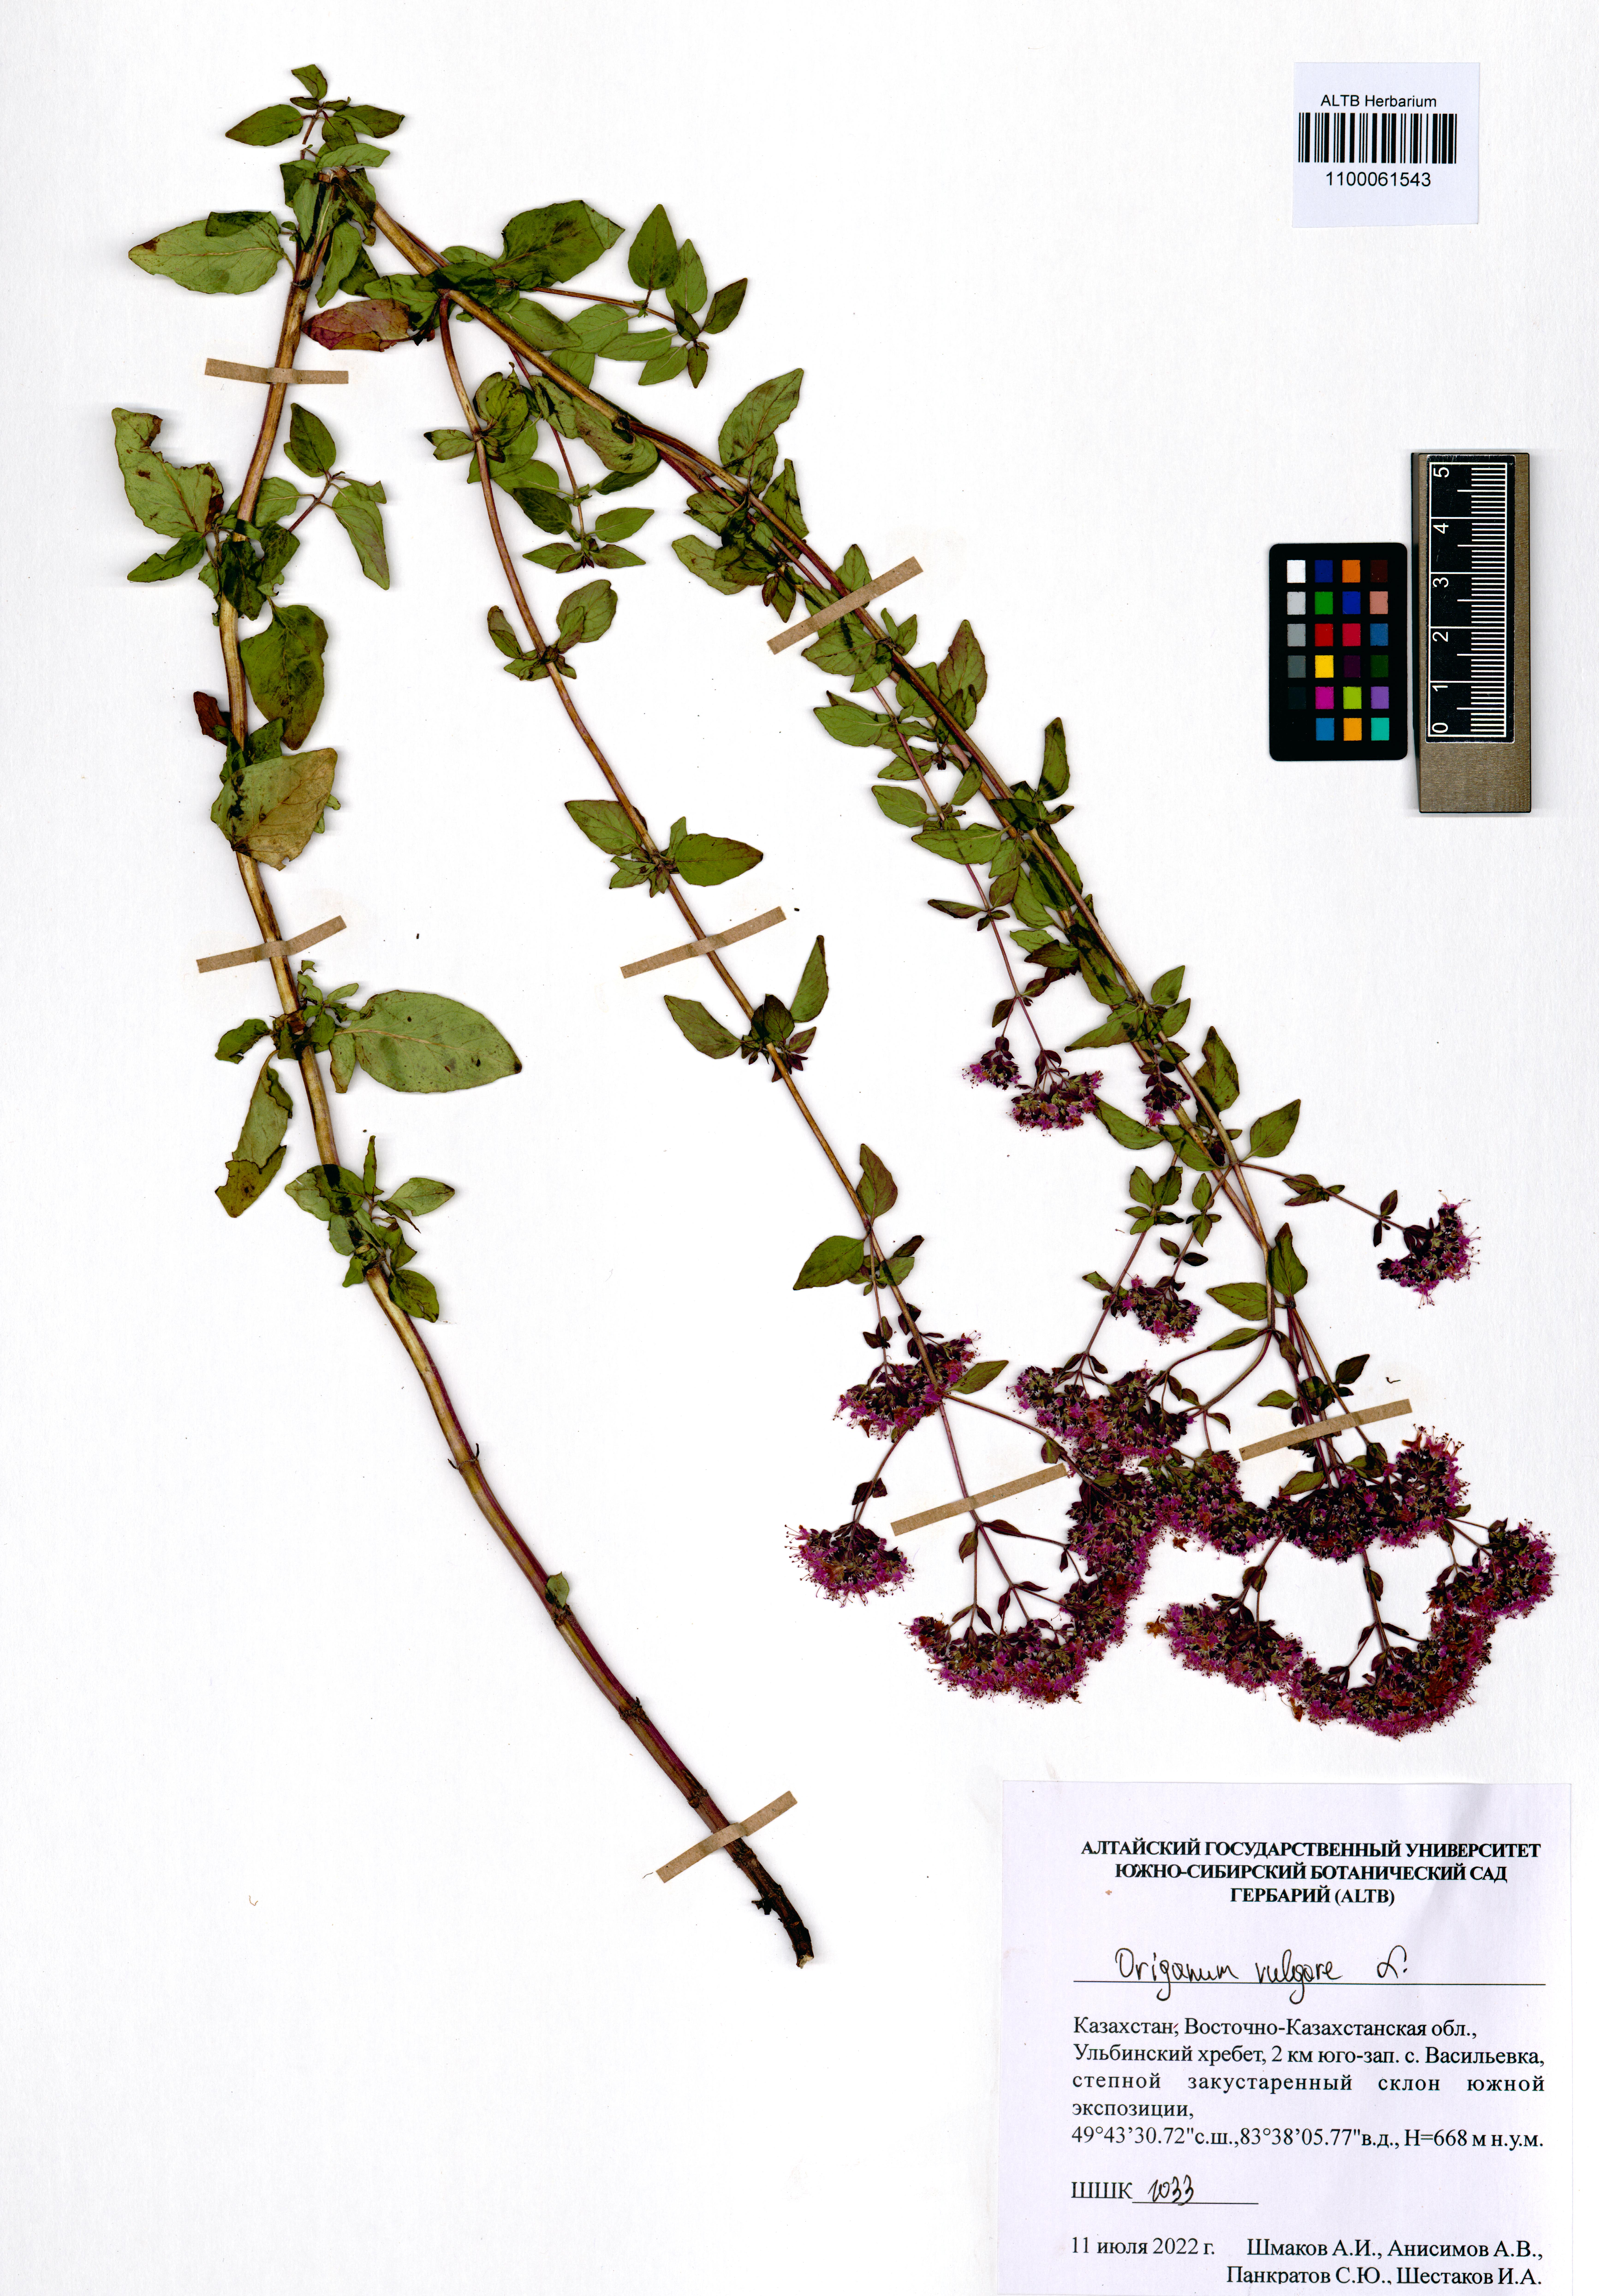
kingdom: Plantae
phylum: Tracheophyta
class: Magnoliopsida
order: Lamiales
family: Lamiaceae
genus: Origanum
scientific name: Origanum vulgare
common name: Wild marjoram
